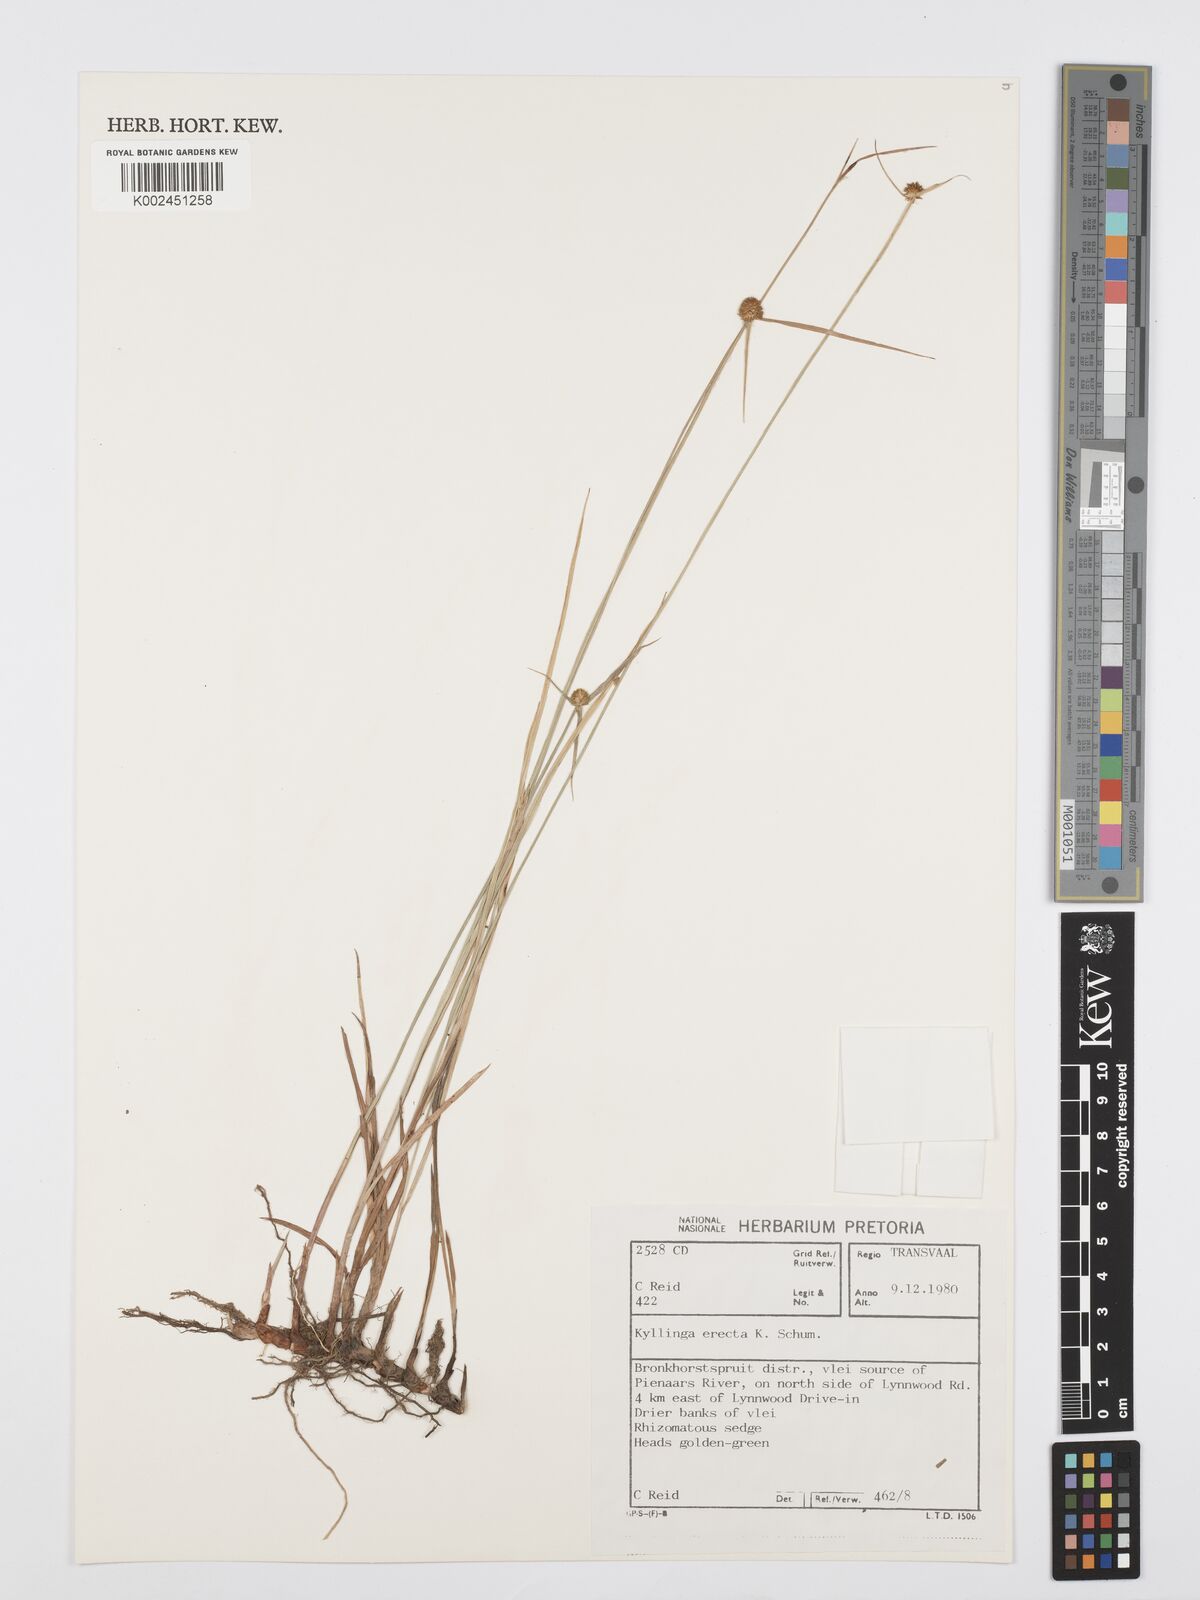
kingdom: Plantae
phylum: Tracheophyta
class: Liliopsida
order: Poales
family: Cyperaceae
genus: Cyperus
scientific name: Cyperus erectus
